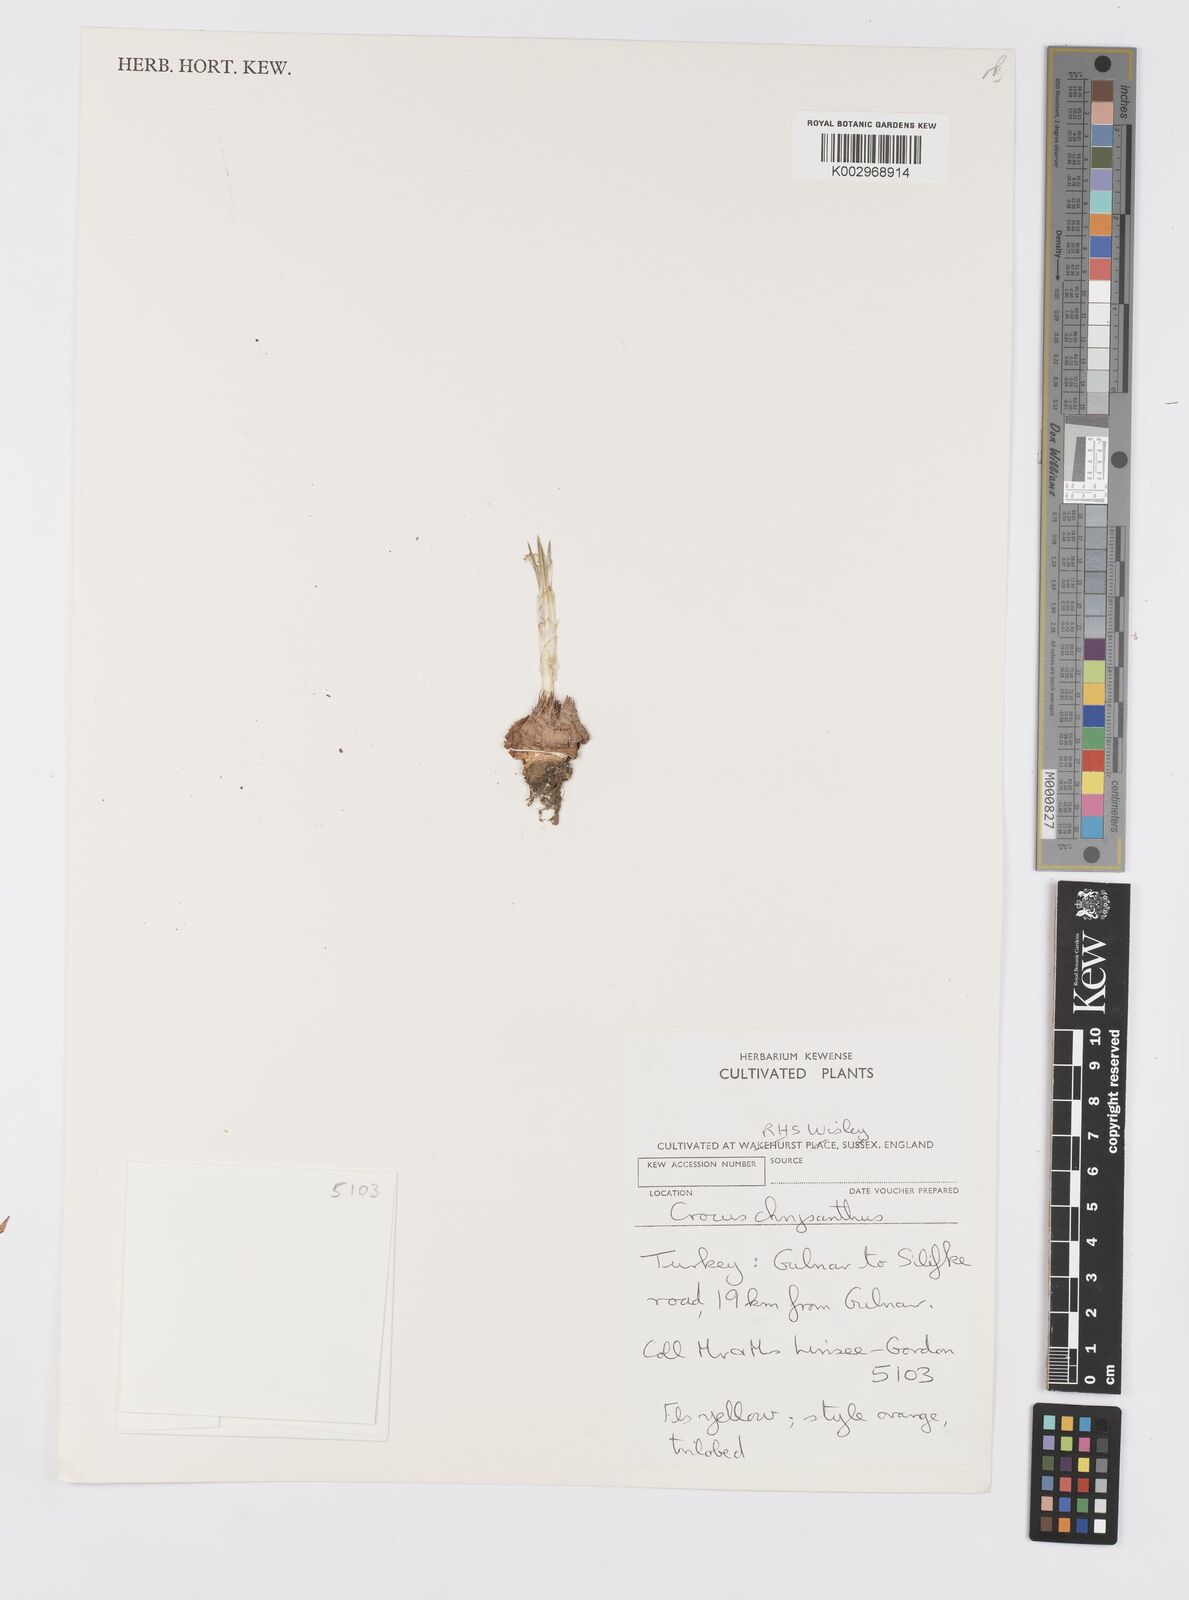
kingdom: Plantae
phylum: Tracheophyta
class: Liliopsida
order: Asparagales
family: Iridaceae
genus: Crocus
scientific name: Crocus chrysanthus
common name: Golden crocus
